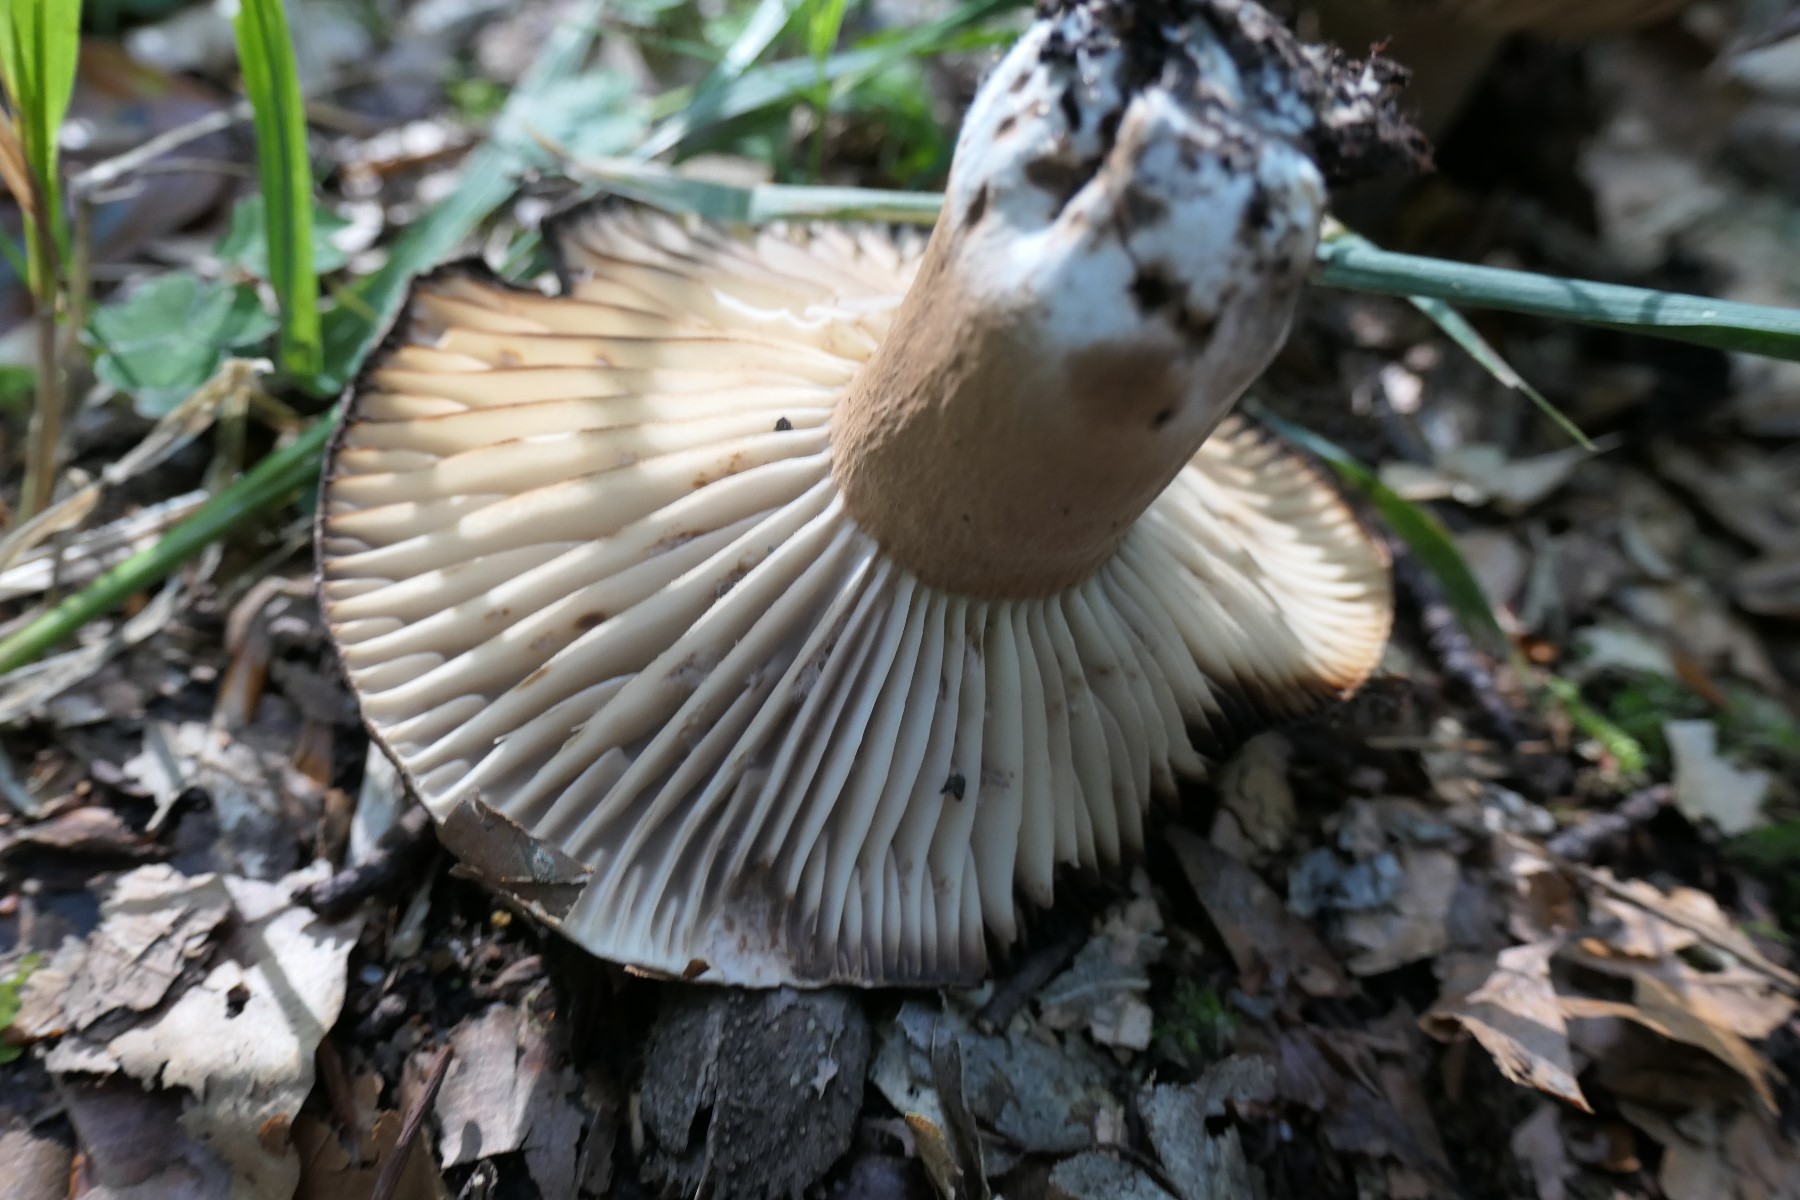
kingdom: Fungi
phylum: Basidiomycota
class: Agaricomycetes
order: Russulales
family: Russulaceae
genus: Russula
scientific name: Russula adusta
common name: sværtende skørhat
